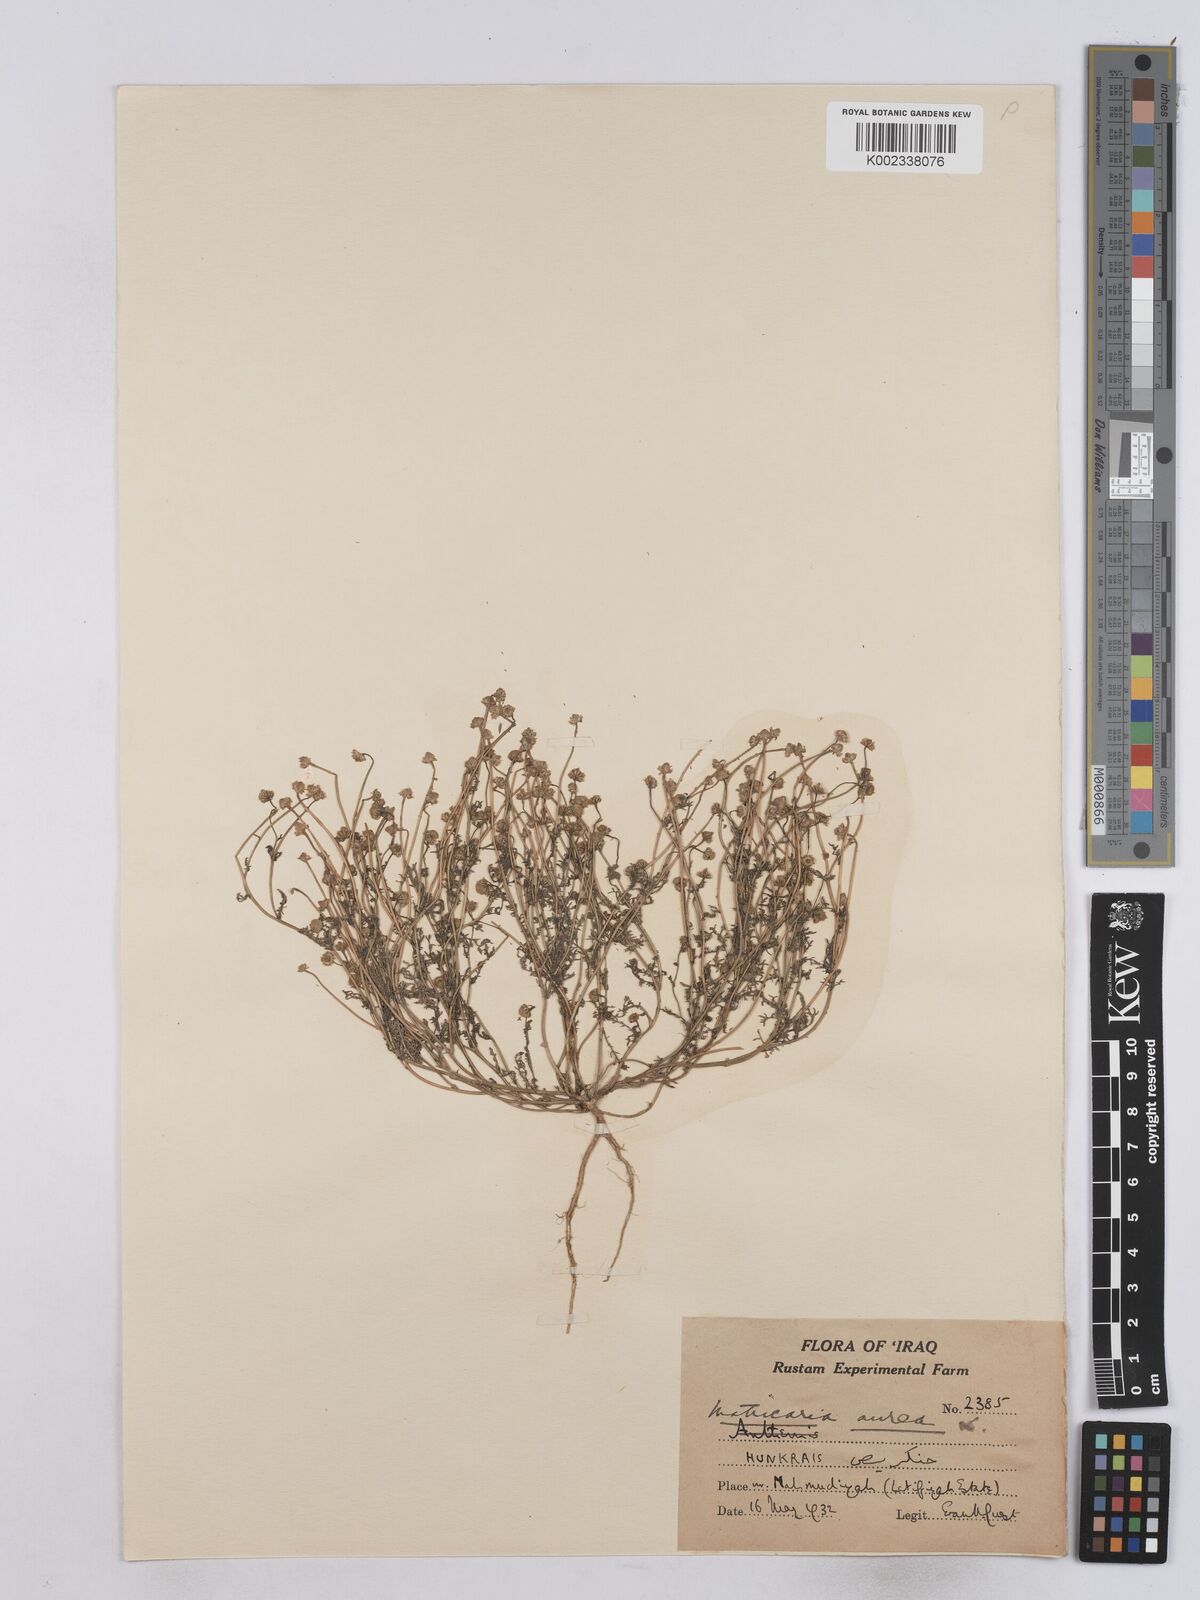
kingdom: Plantae
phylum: Tracheophyta
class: Magnoliopsida
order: Asterales
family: Asteraceae
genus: Matricaria
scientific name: Matricaria aurea
